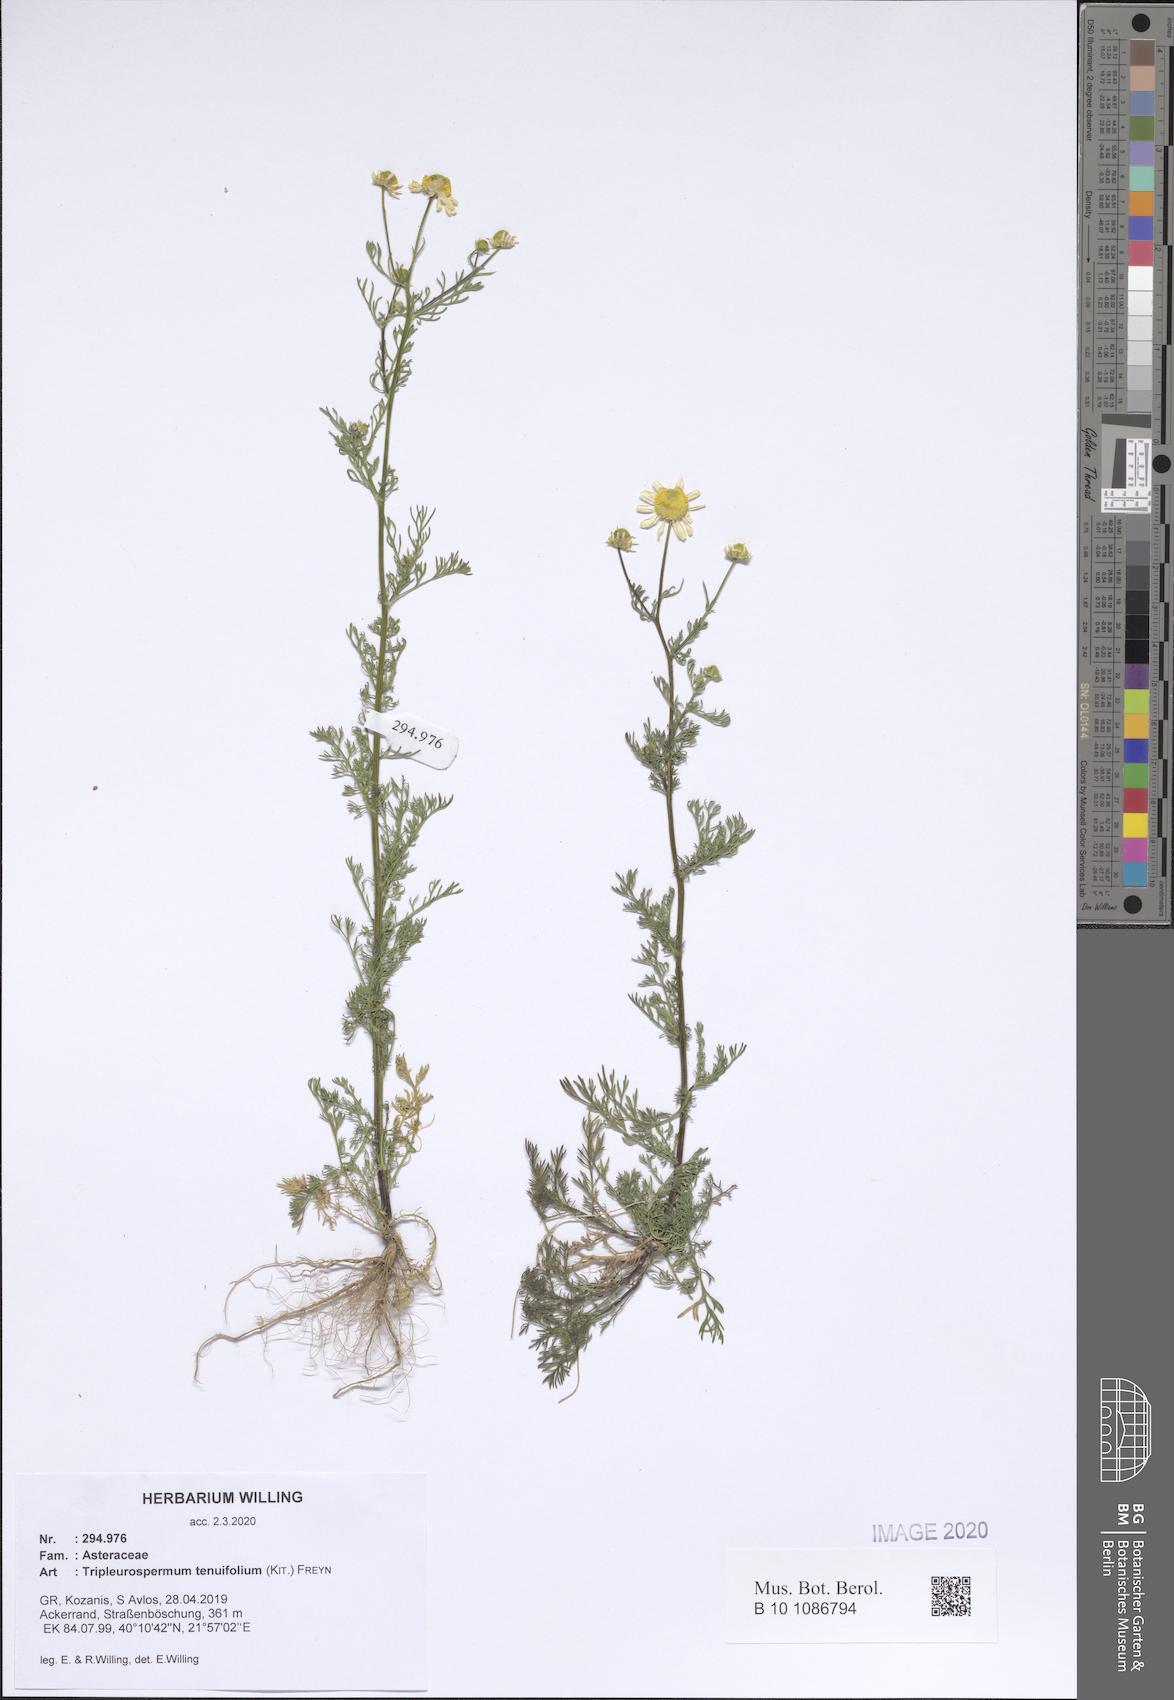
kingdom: Plantae
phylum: Tracheophyta
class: Magnoliopsida
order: Asterales
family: Asteraceae
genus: Tripleurospermum
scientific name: Tripleurospermum tenuifolium
